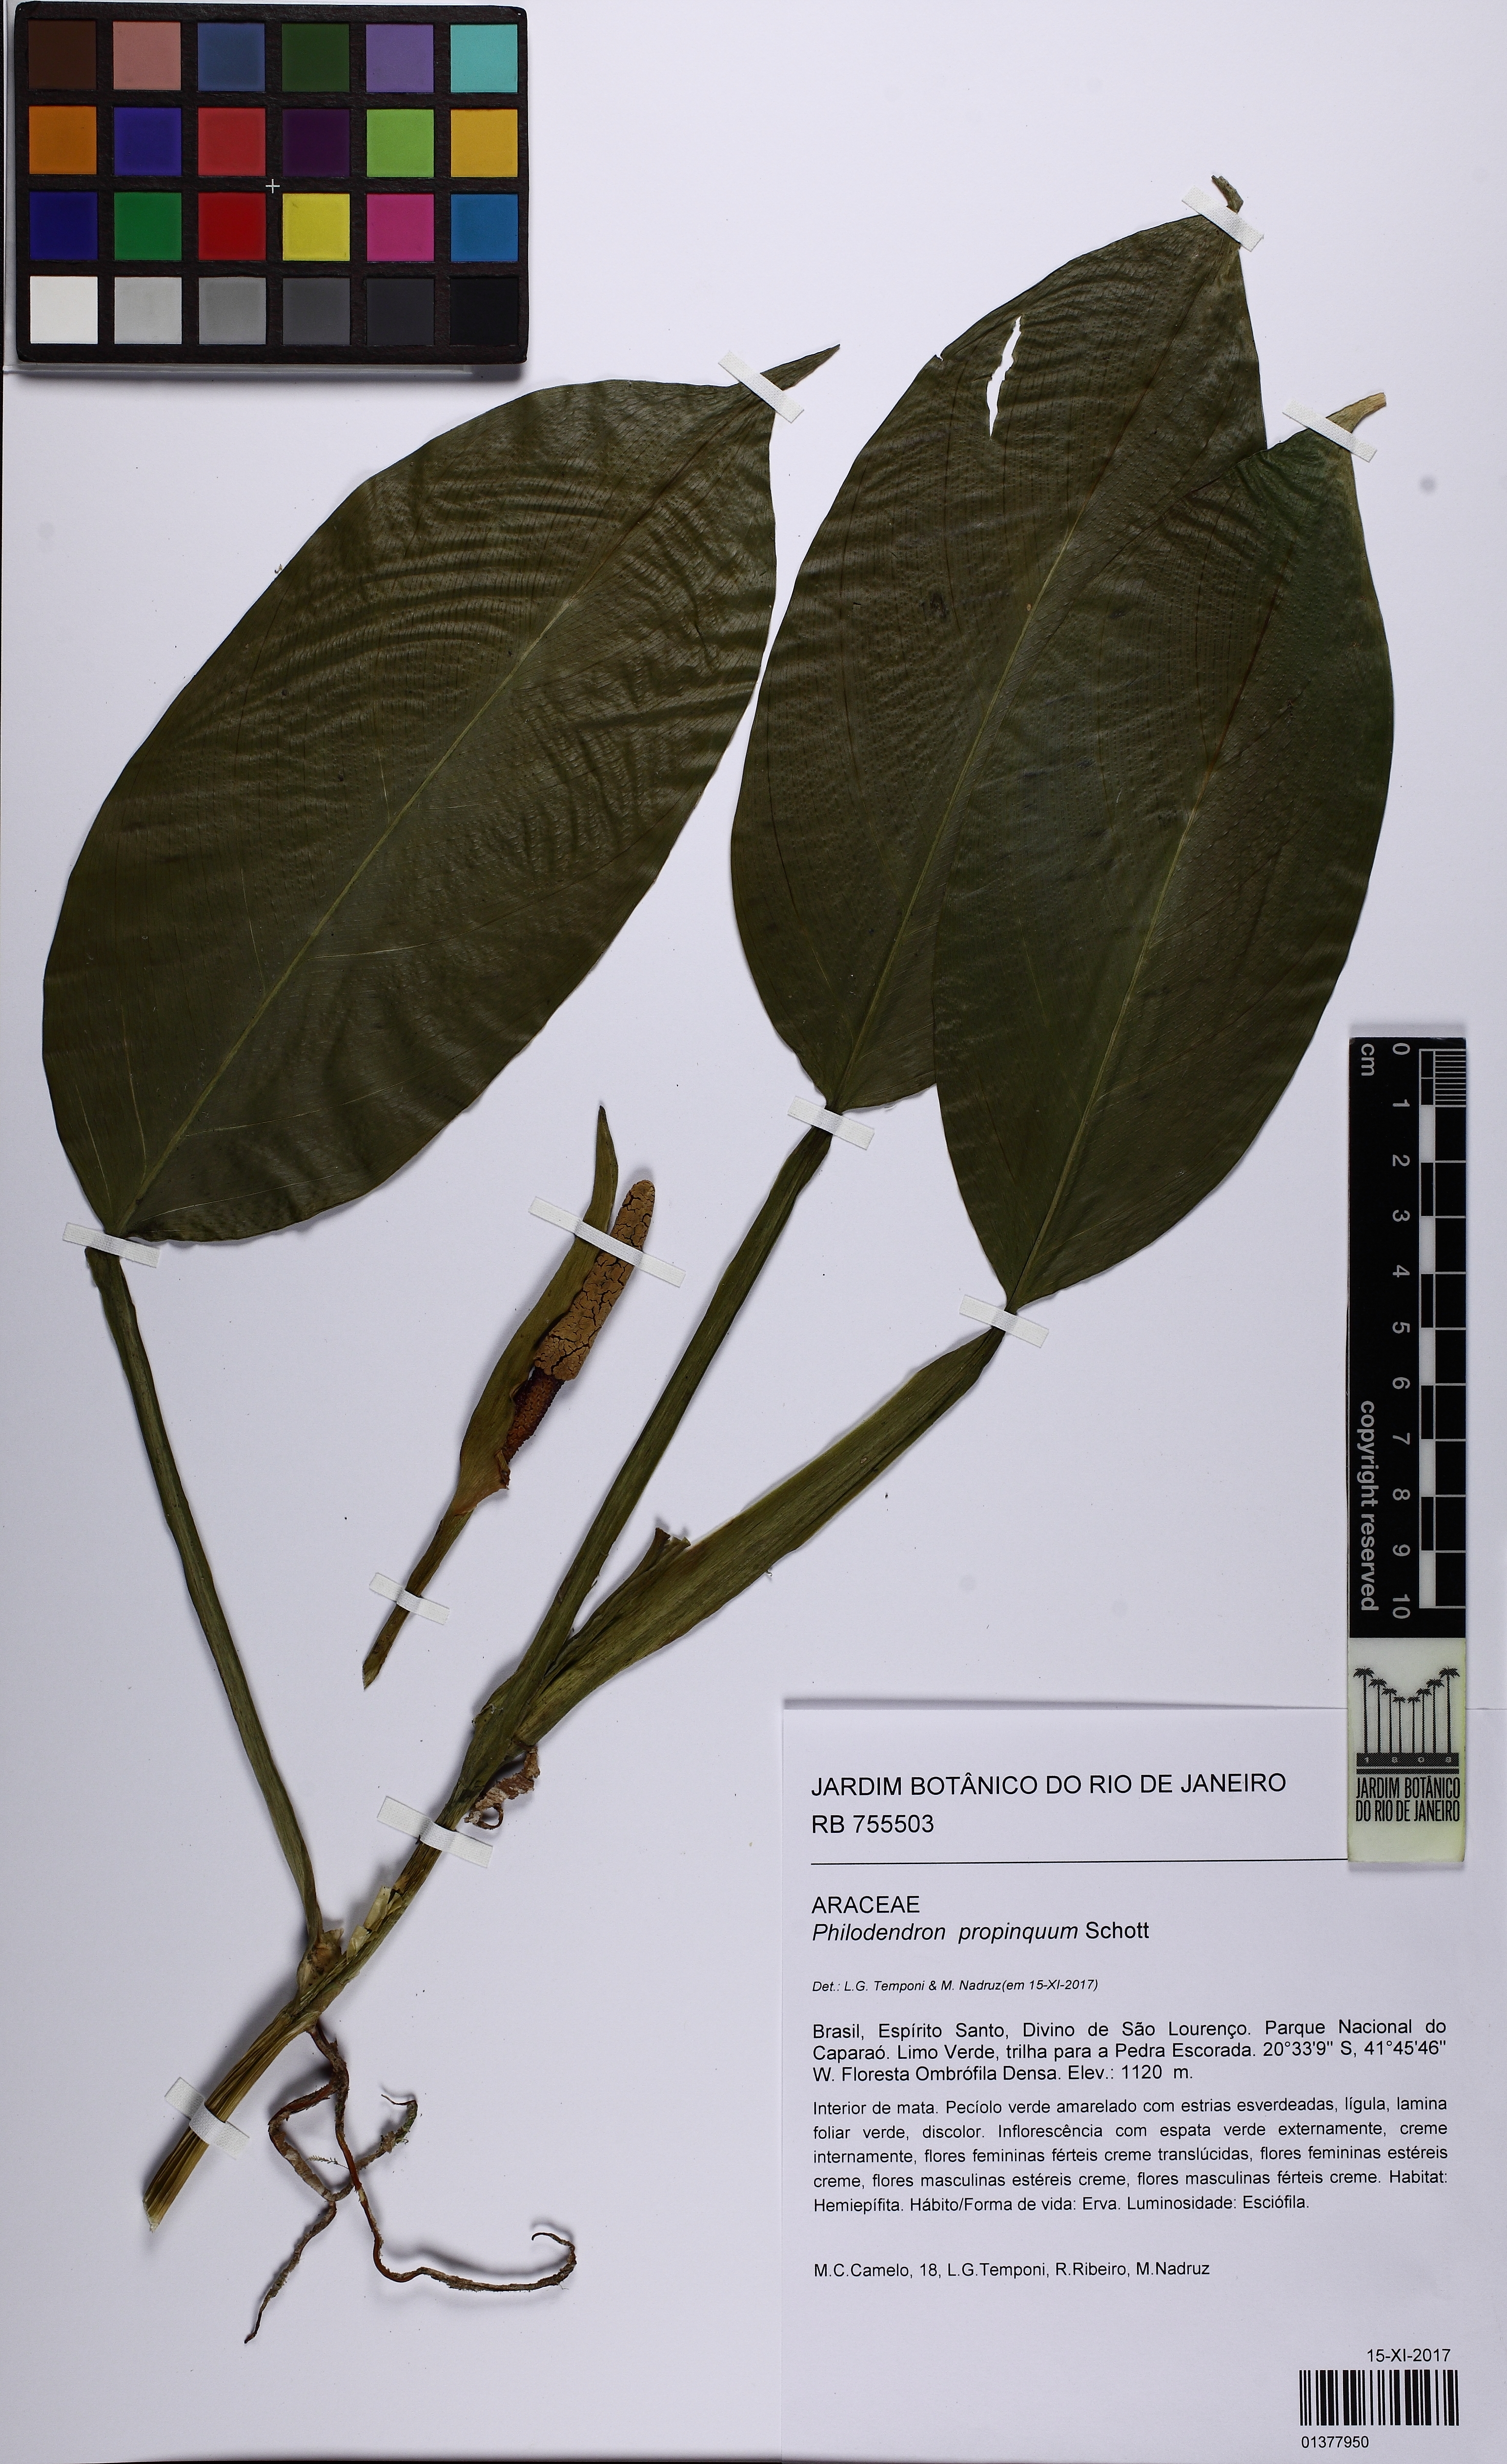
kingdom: Plantae
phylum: Tracheophyta
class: Liliopsida
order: Alismatales
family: Araceae
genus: Philodendron
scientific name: Philodendron propinquum
